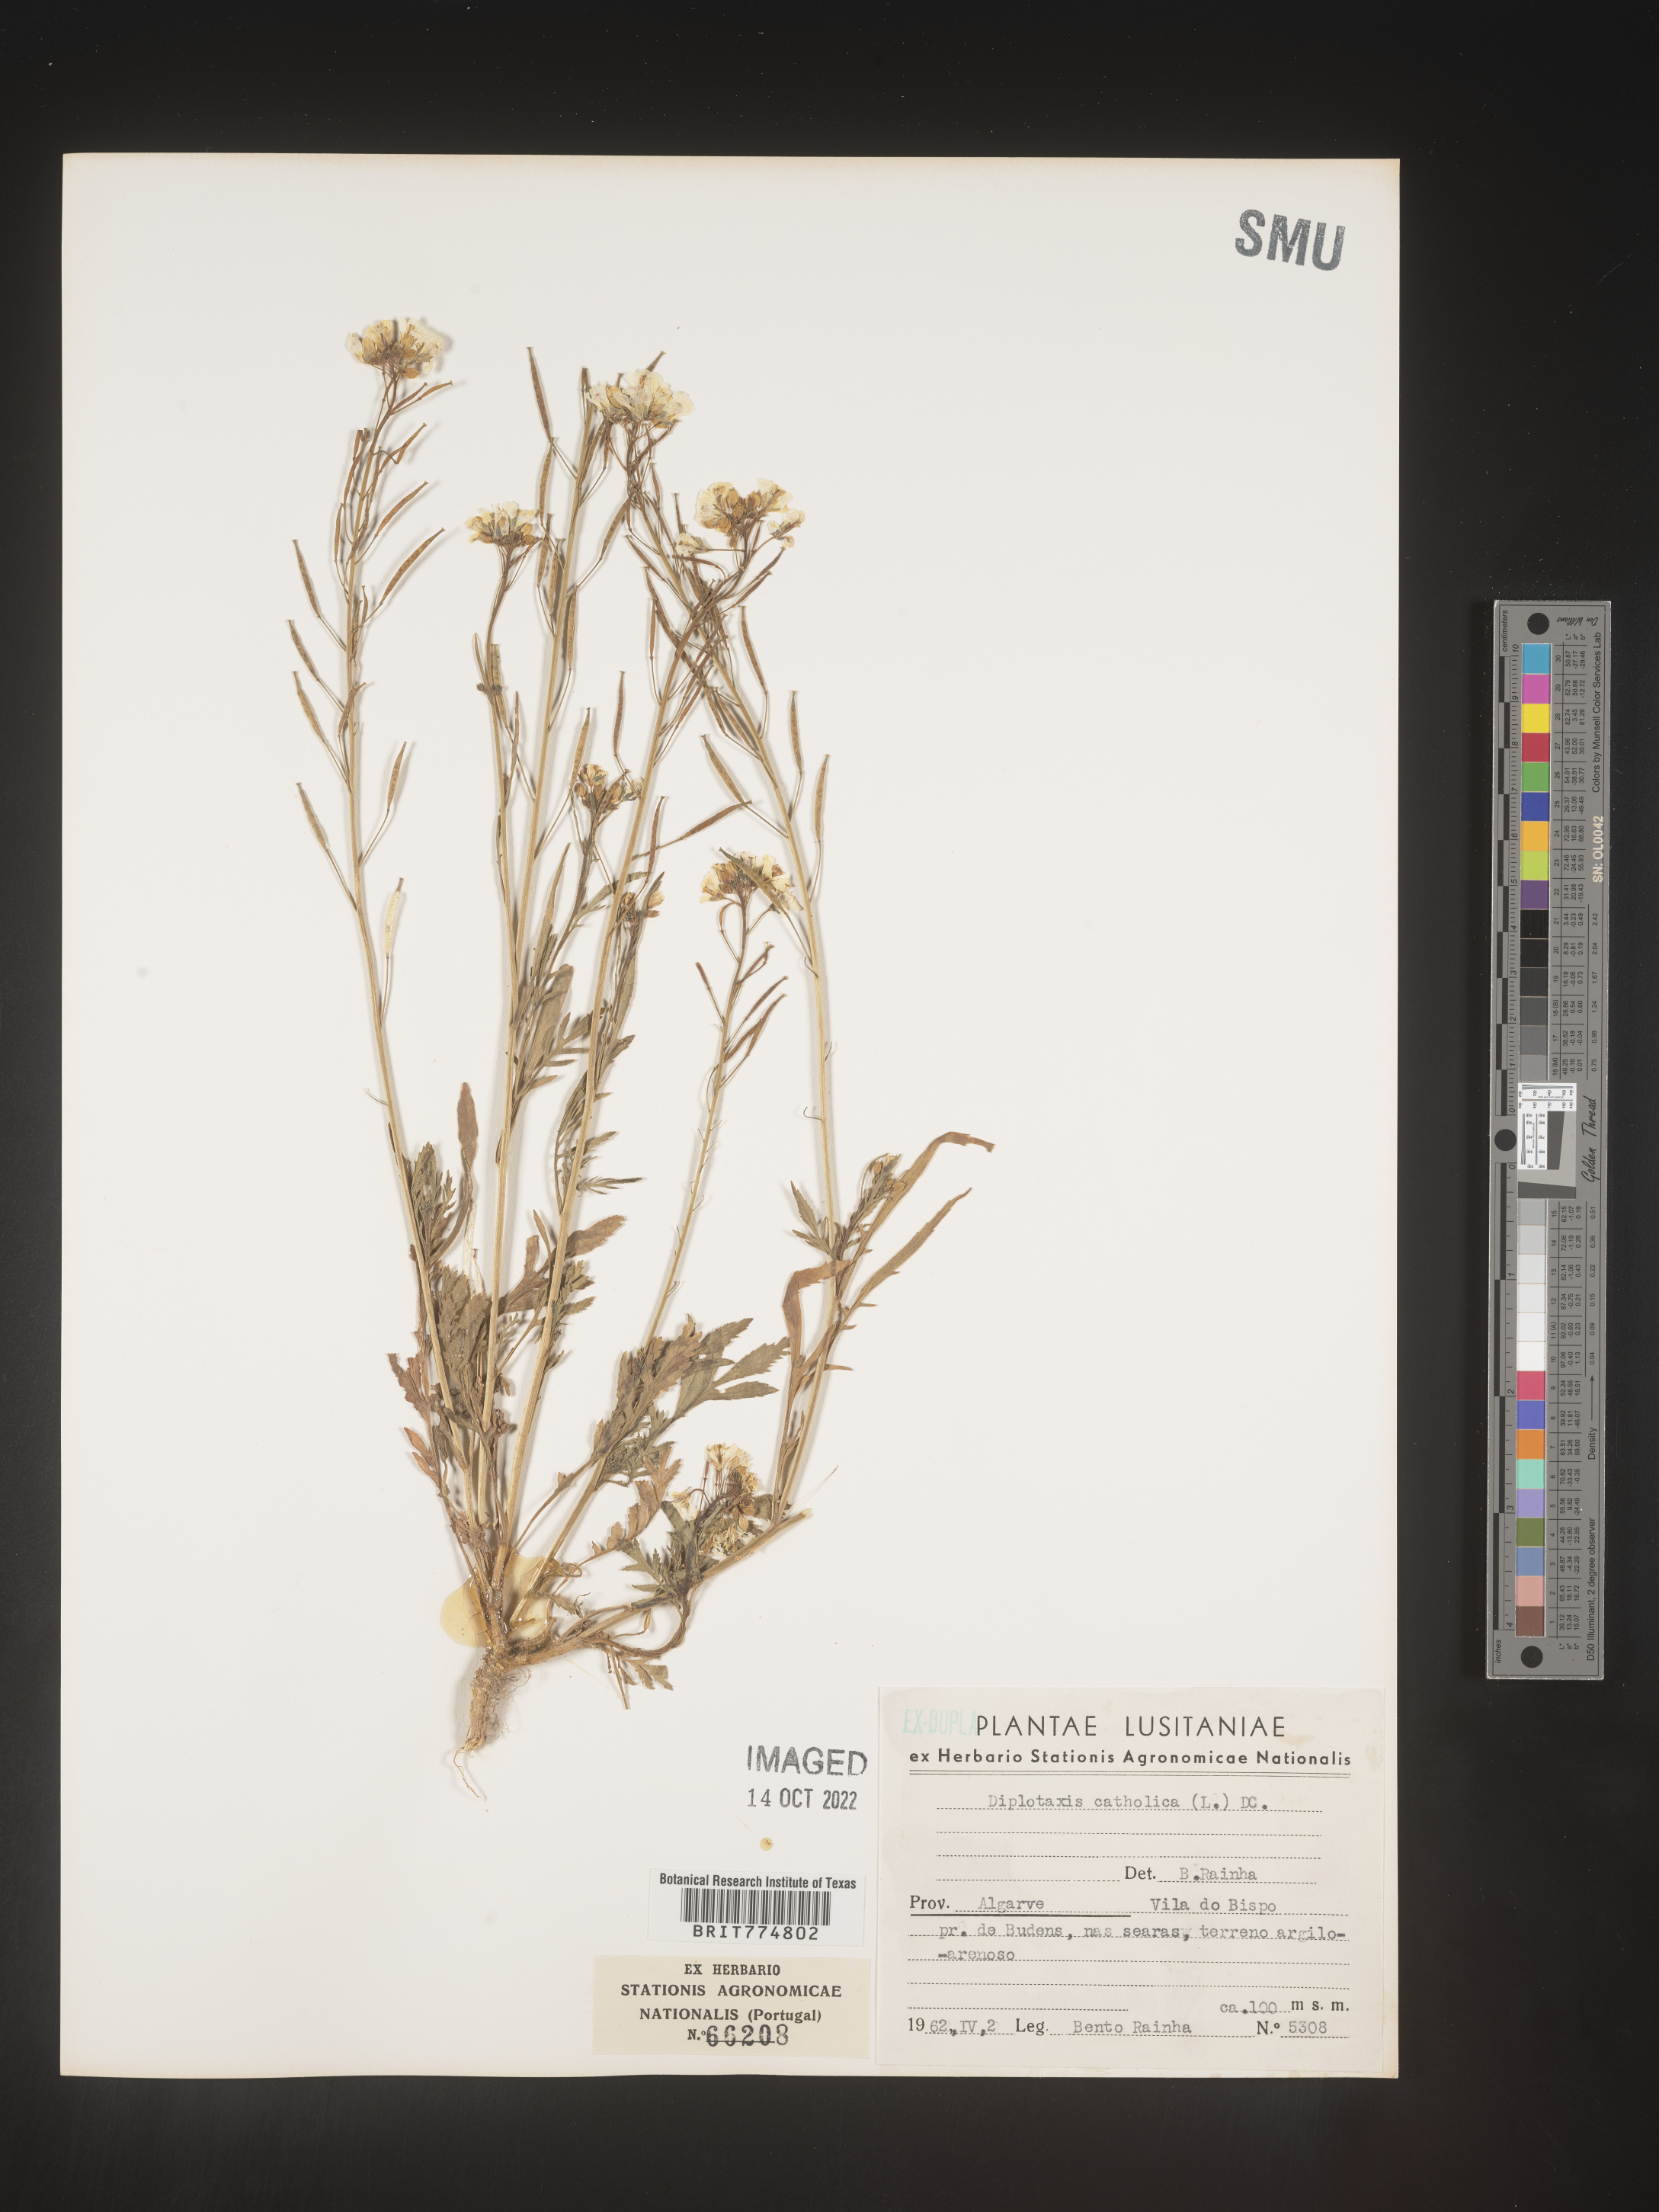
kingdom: Plantae
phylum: Tracheophyta
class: Magnoliopsida
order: Brassicales
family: Brassicaceae
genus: Diplotaxis
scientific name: Diplotaxis
